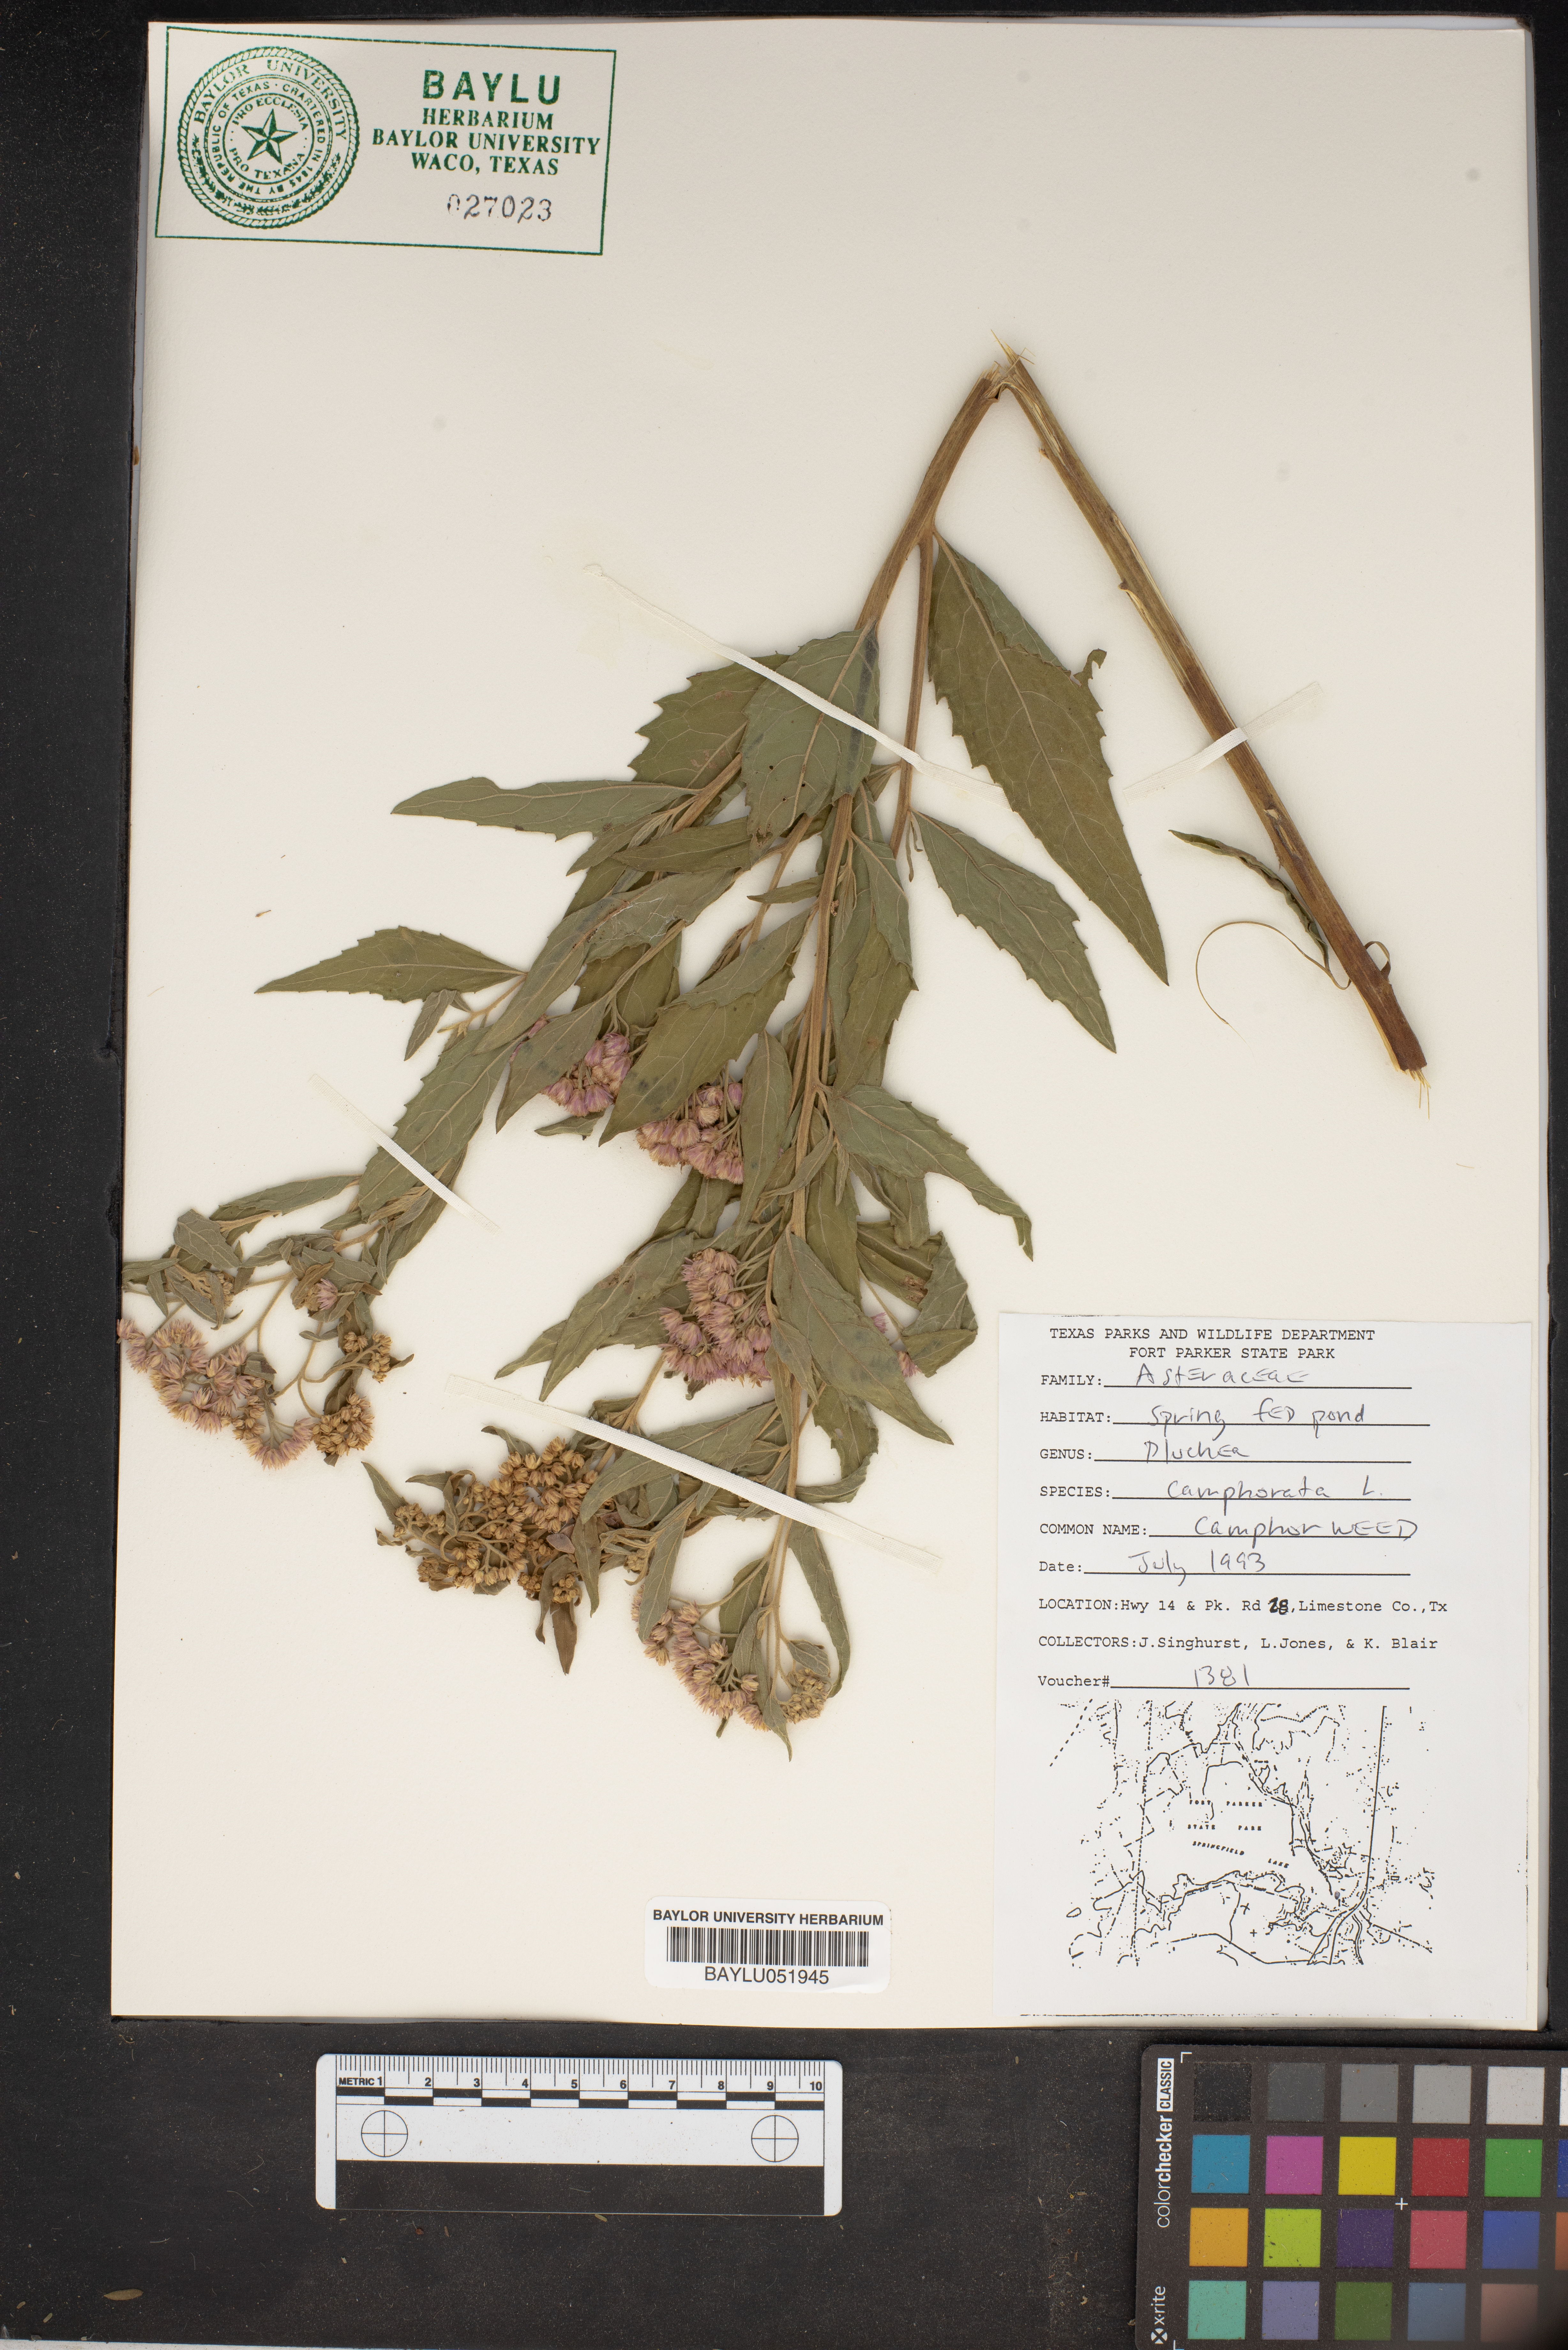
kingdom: Plantae
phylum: Tracheophyta
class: Magnoliopsida
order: Asterales
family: Asteraceae
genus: Pluchea
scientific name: Pluchea camphorata
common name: Camphor pluchea
